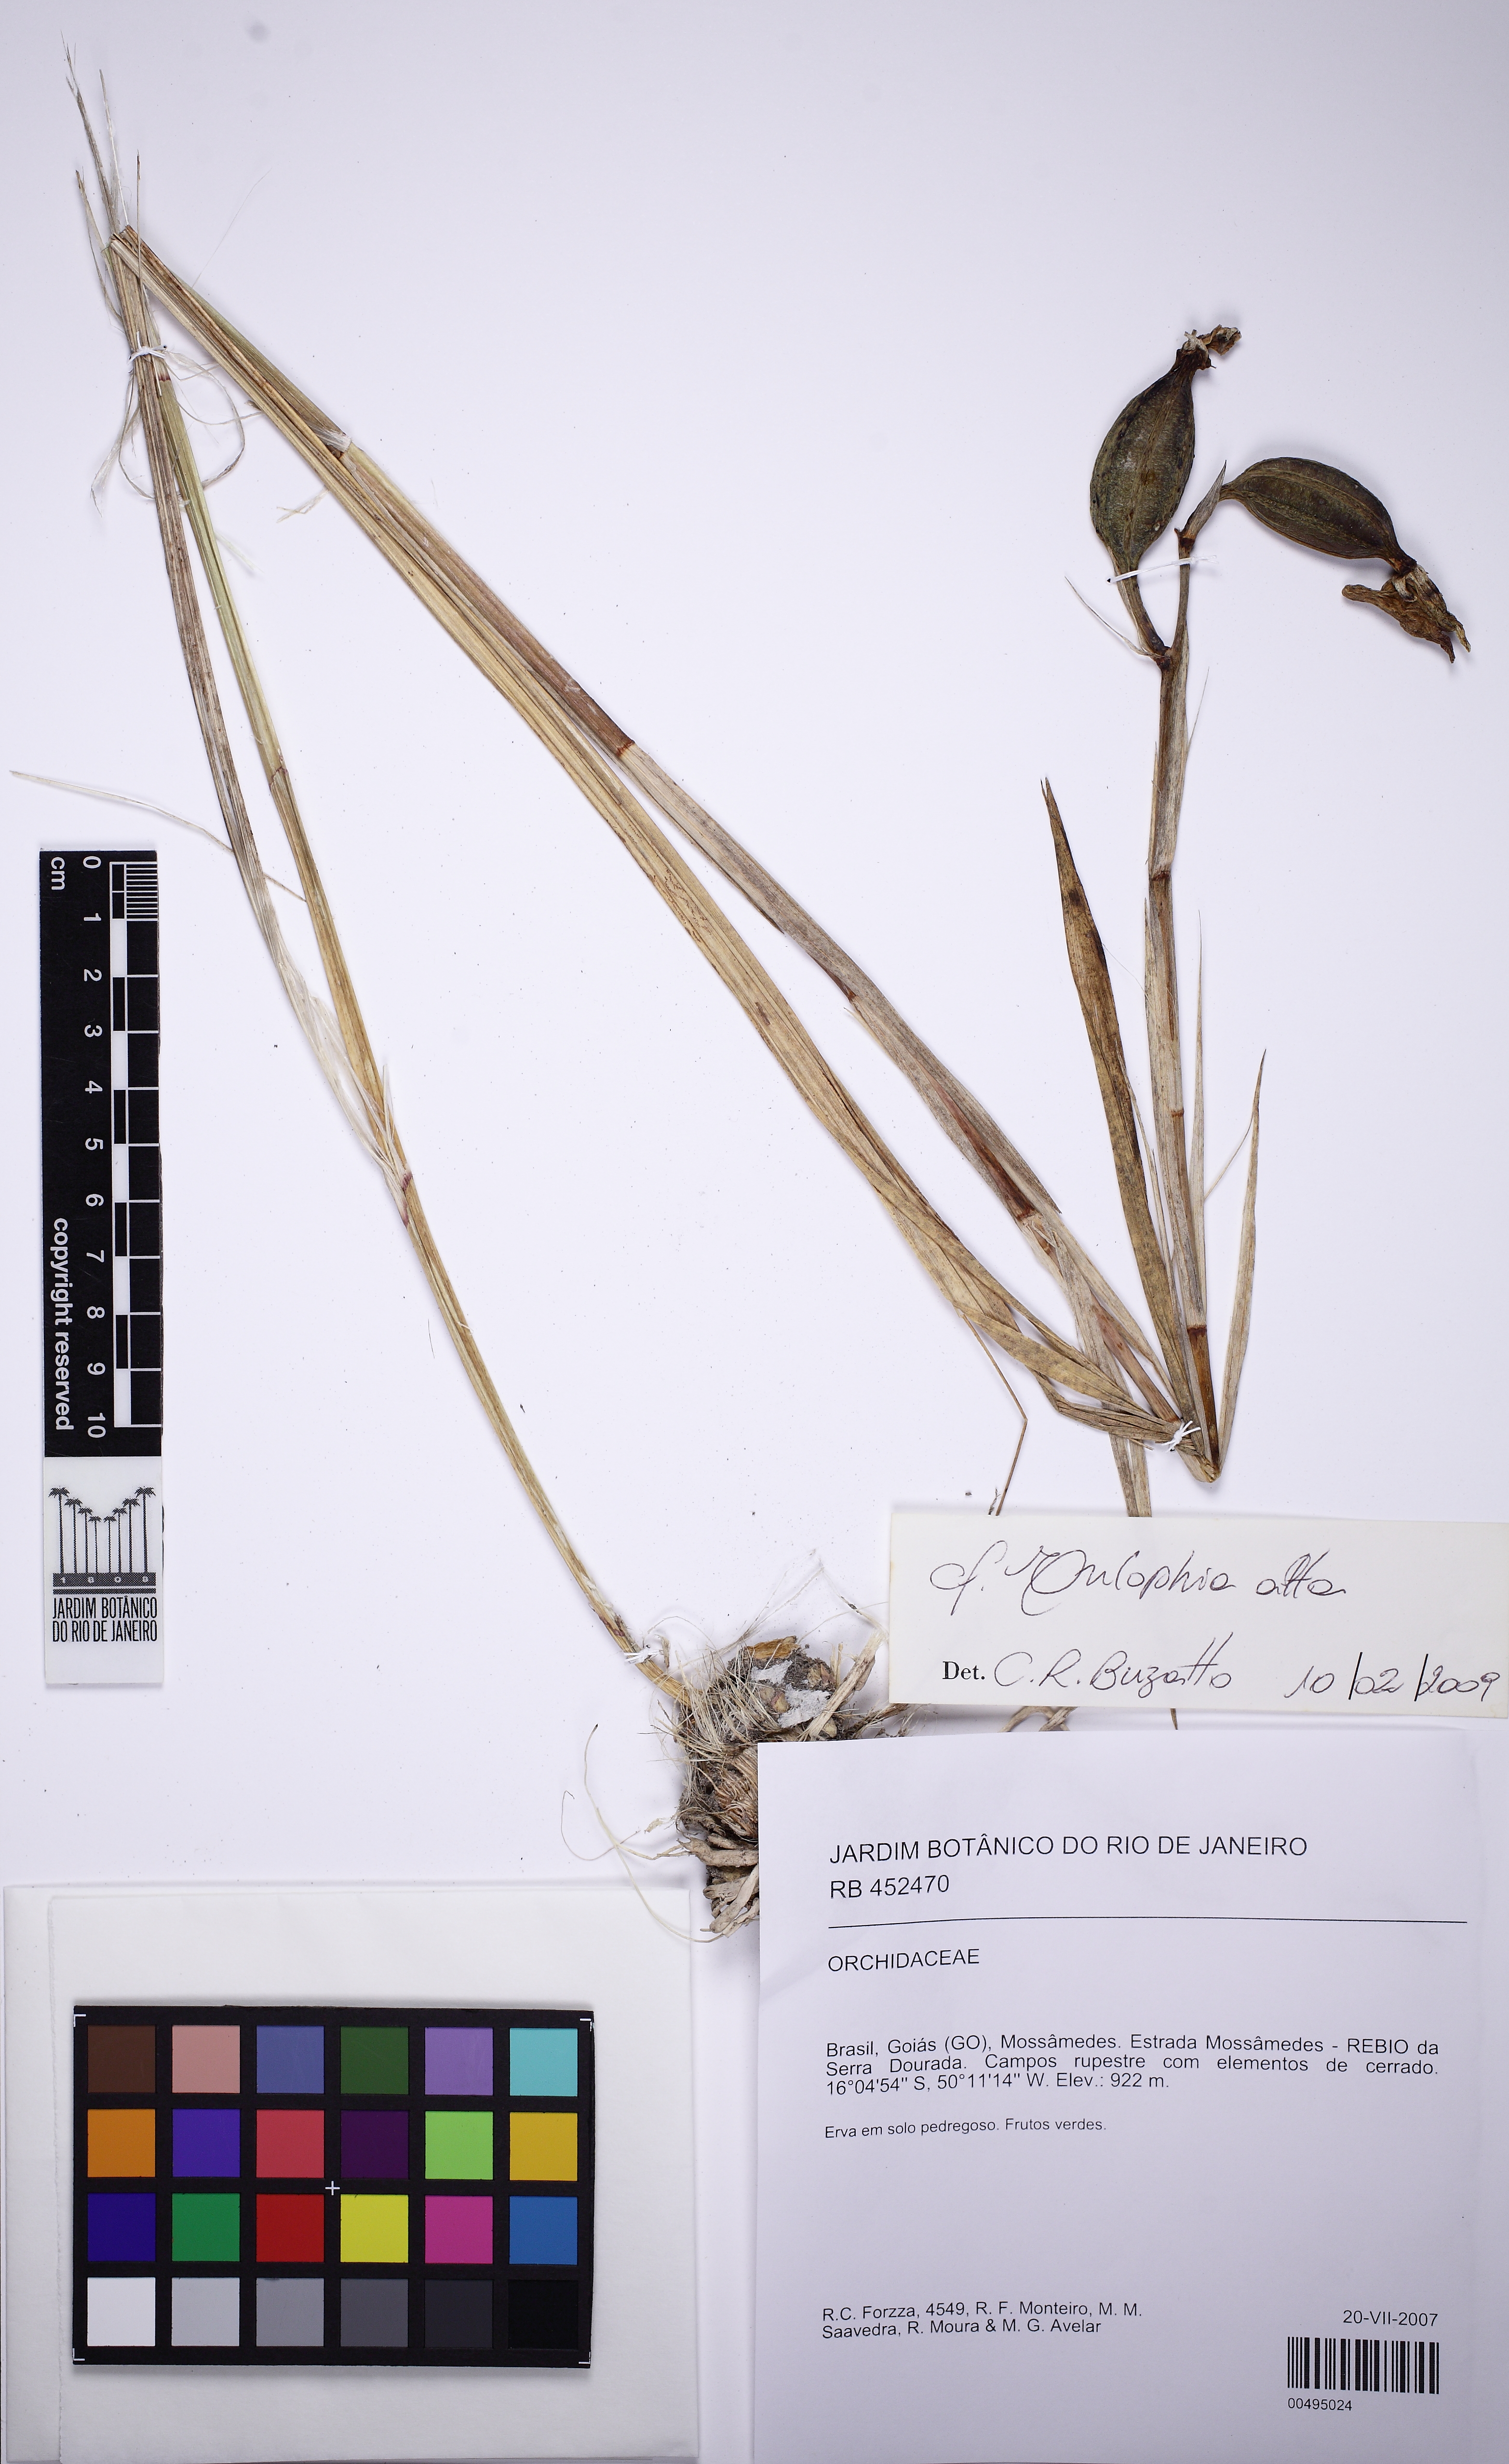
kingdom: Plantae
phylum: Tracheophyta
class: Liliopsida
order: Asparagales
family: Orchidaceae
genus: Eulophia
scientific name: Eulophia alta
